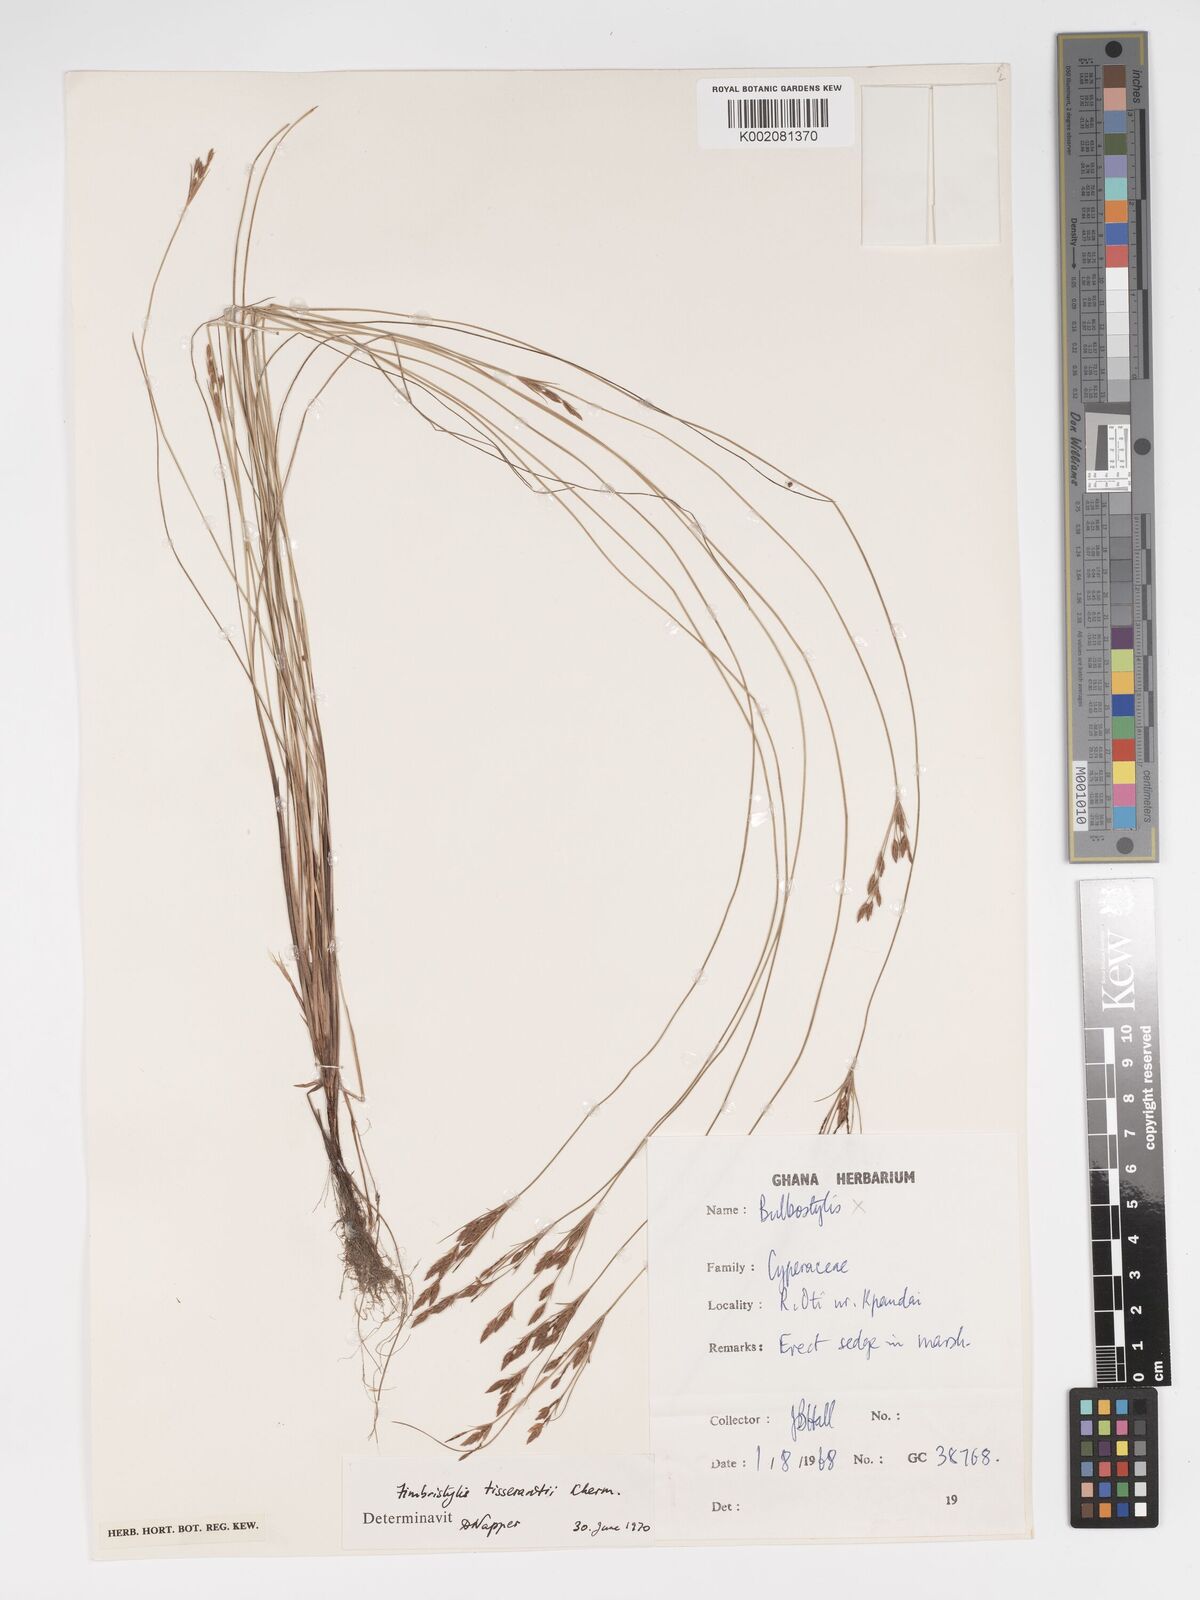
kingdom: Plantae
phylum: Tracheophyta
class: Liliopsida
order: Poales
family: Cyperaceae
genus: Bulbostylis
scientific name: Bulbostylis viridecarinata
